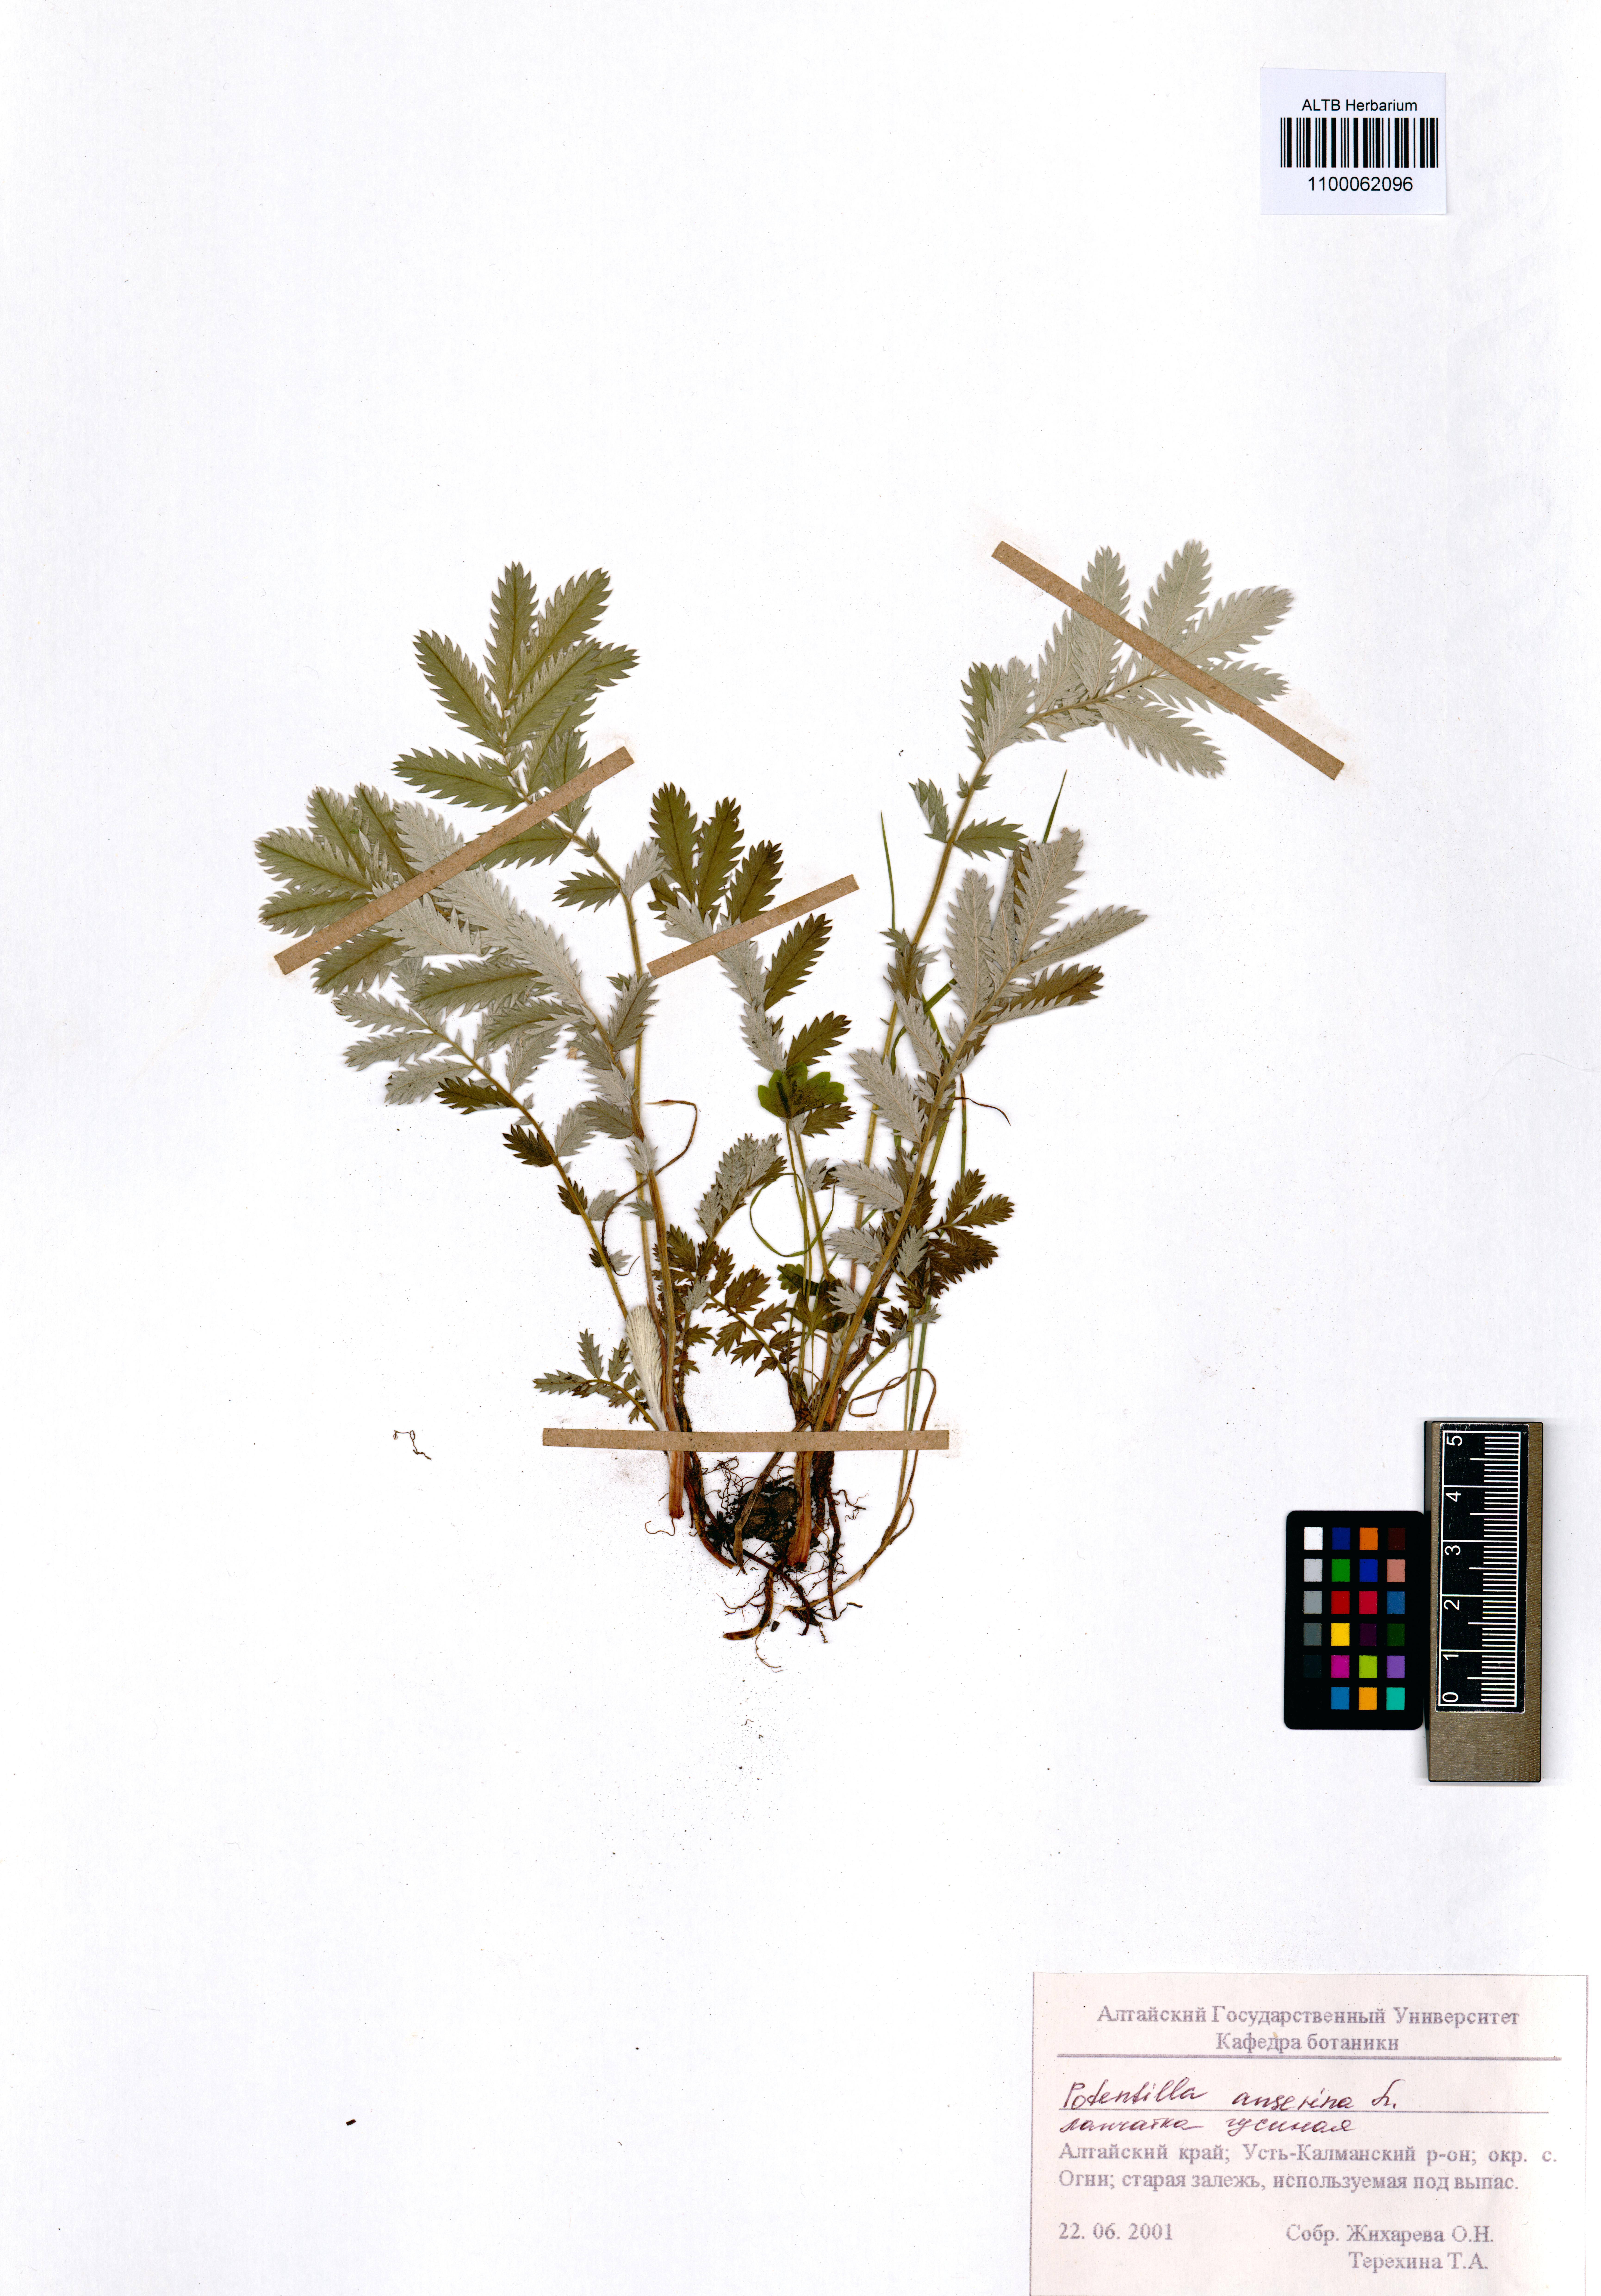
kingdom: Plantae
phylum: Tracheophyta
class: Magnoliopsida
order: Rosales
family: Rosaceae
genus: Argentina
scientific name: Argentina anserina
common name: Common silverweed
